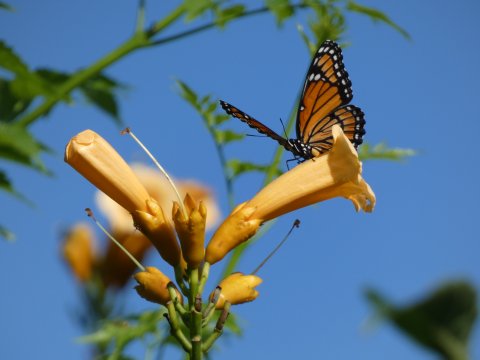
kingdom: Animalia
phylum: Arthropoda
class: Insecta
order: Lepidoptera
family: Nymphalidae
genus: Limenitis
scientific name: Limenitis archippus
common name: Viceroy
